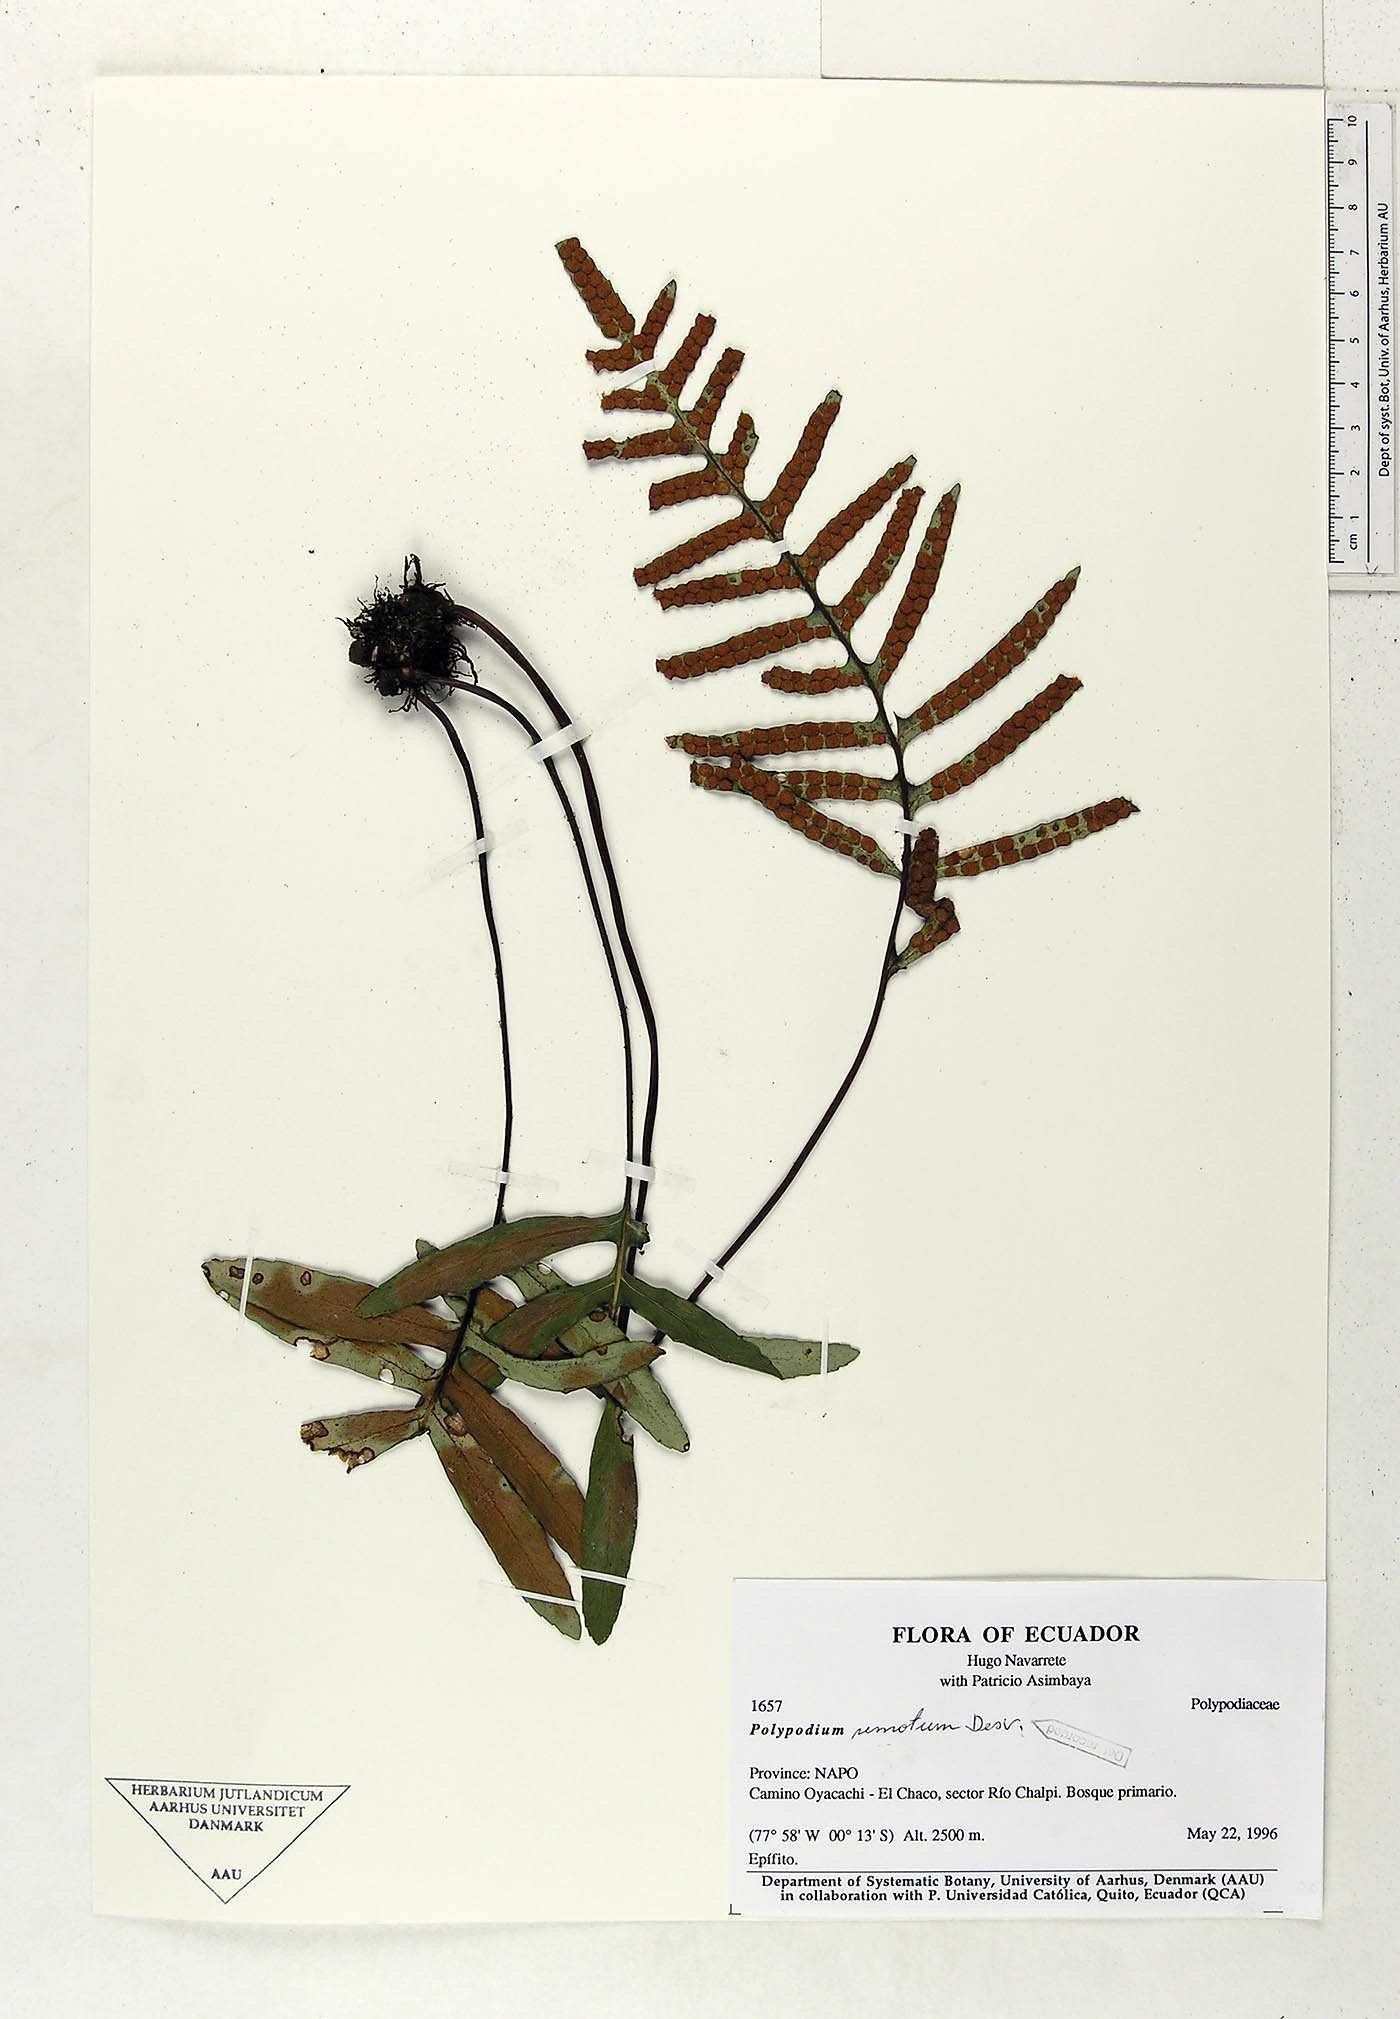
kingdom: Plantae
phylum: Tracheophyta
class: Polypodiopsida
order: Polypodiales
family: Polypodiaceae
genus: Pleopeltis
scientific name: Pleopeltis remota
